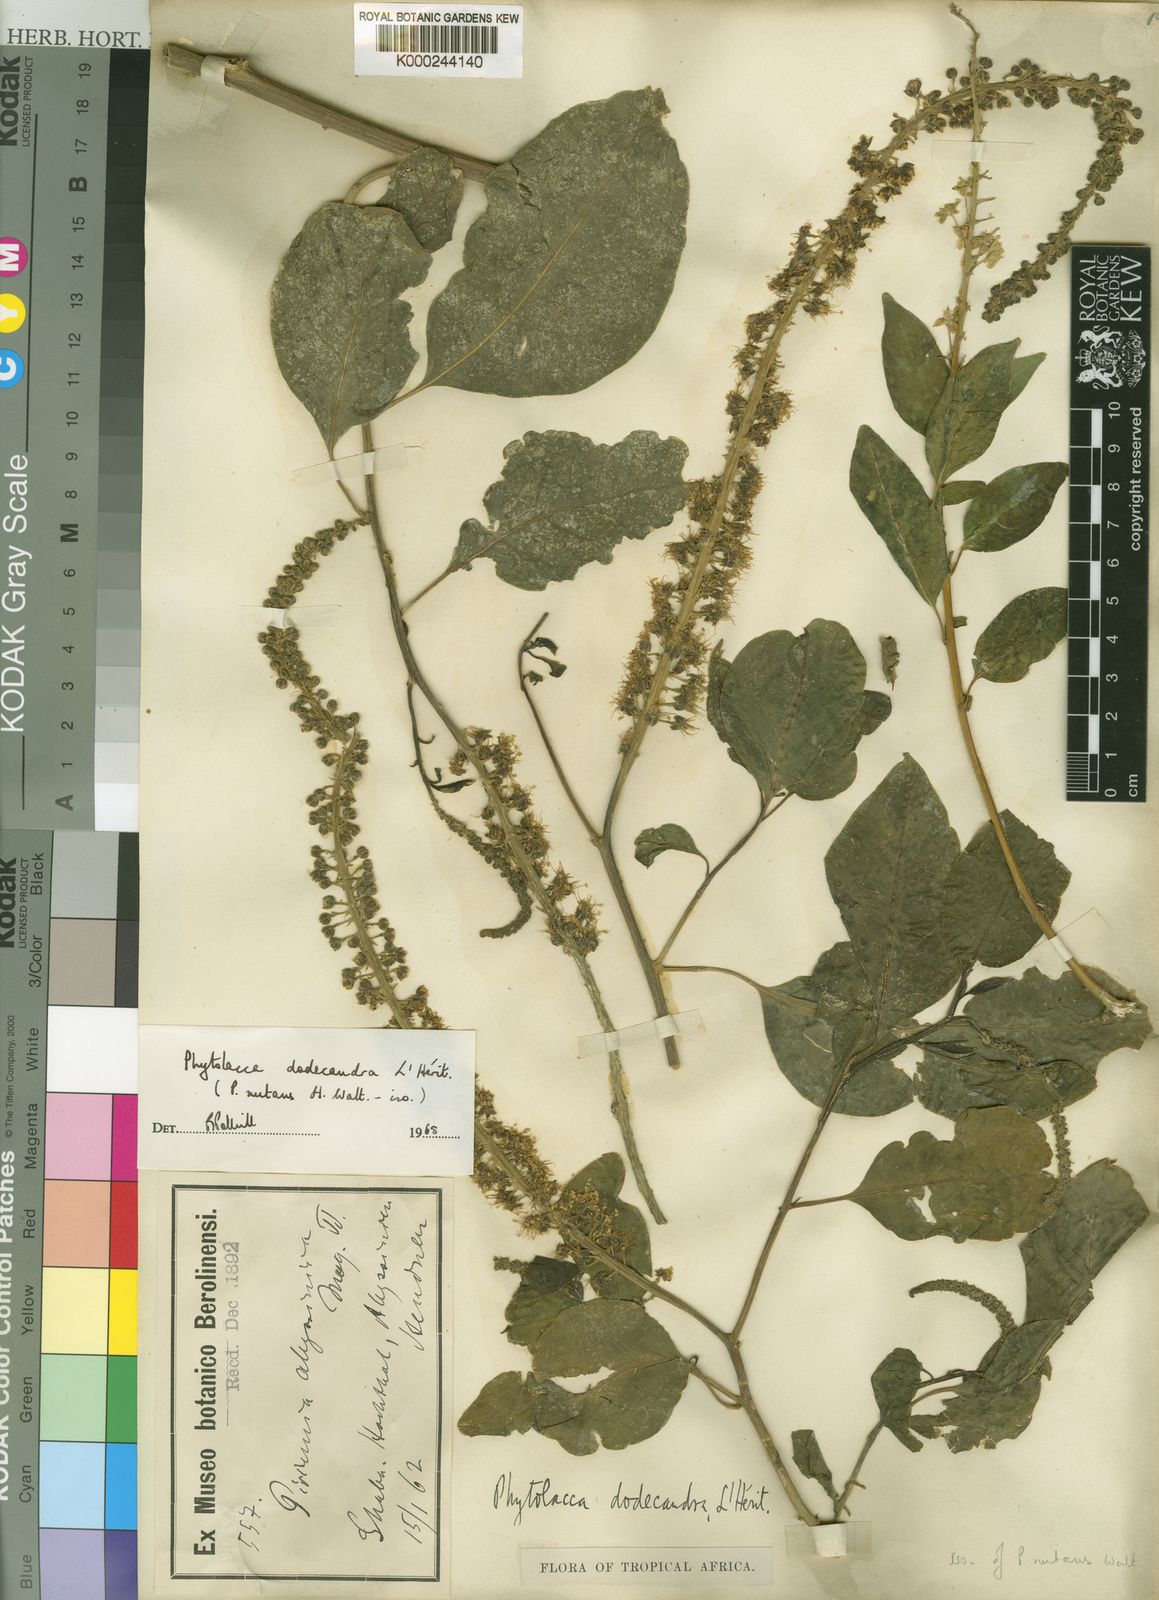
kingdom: Plantae
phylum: Tracheophyta
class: Magnoliopsida
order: Caryophyllales
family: Phytolaccaceae
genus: Phytolacca
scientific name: Phytolacca
